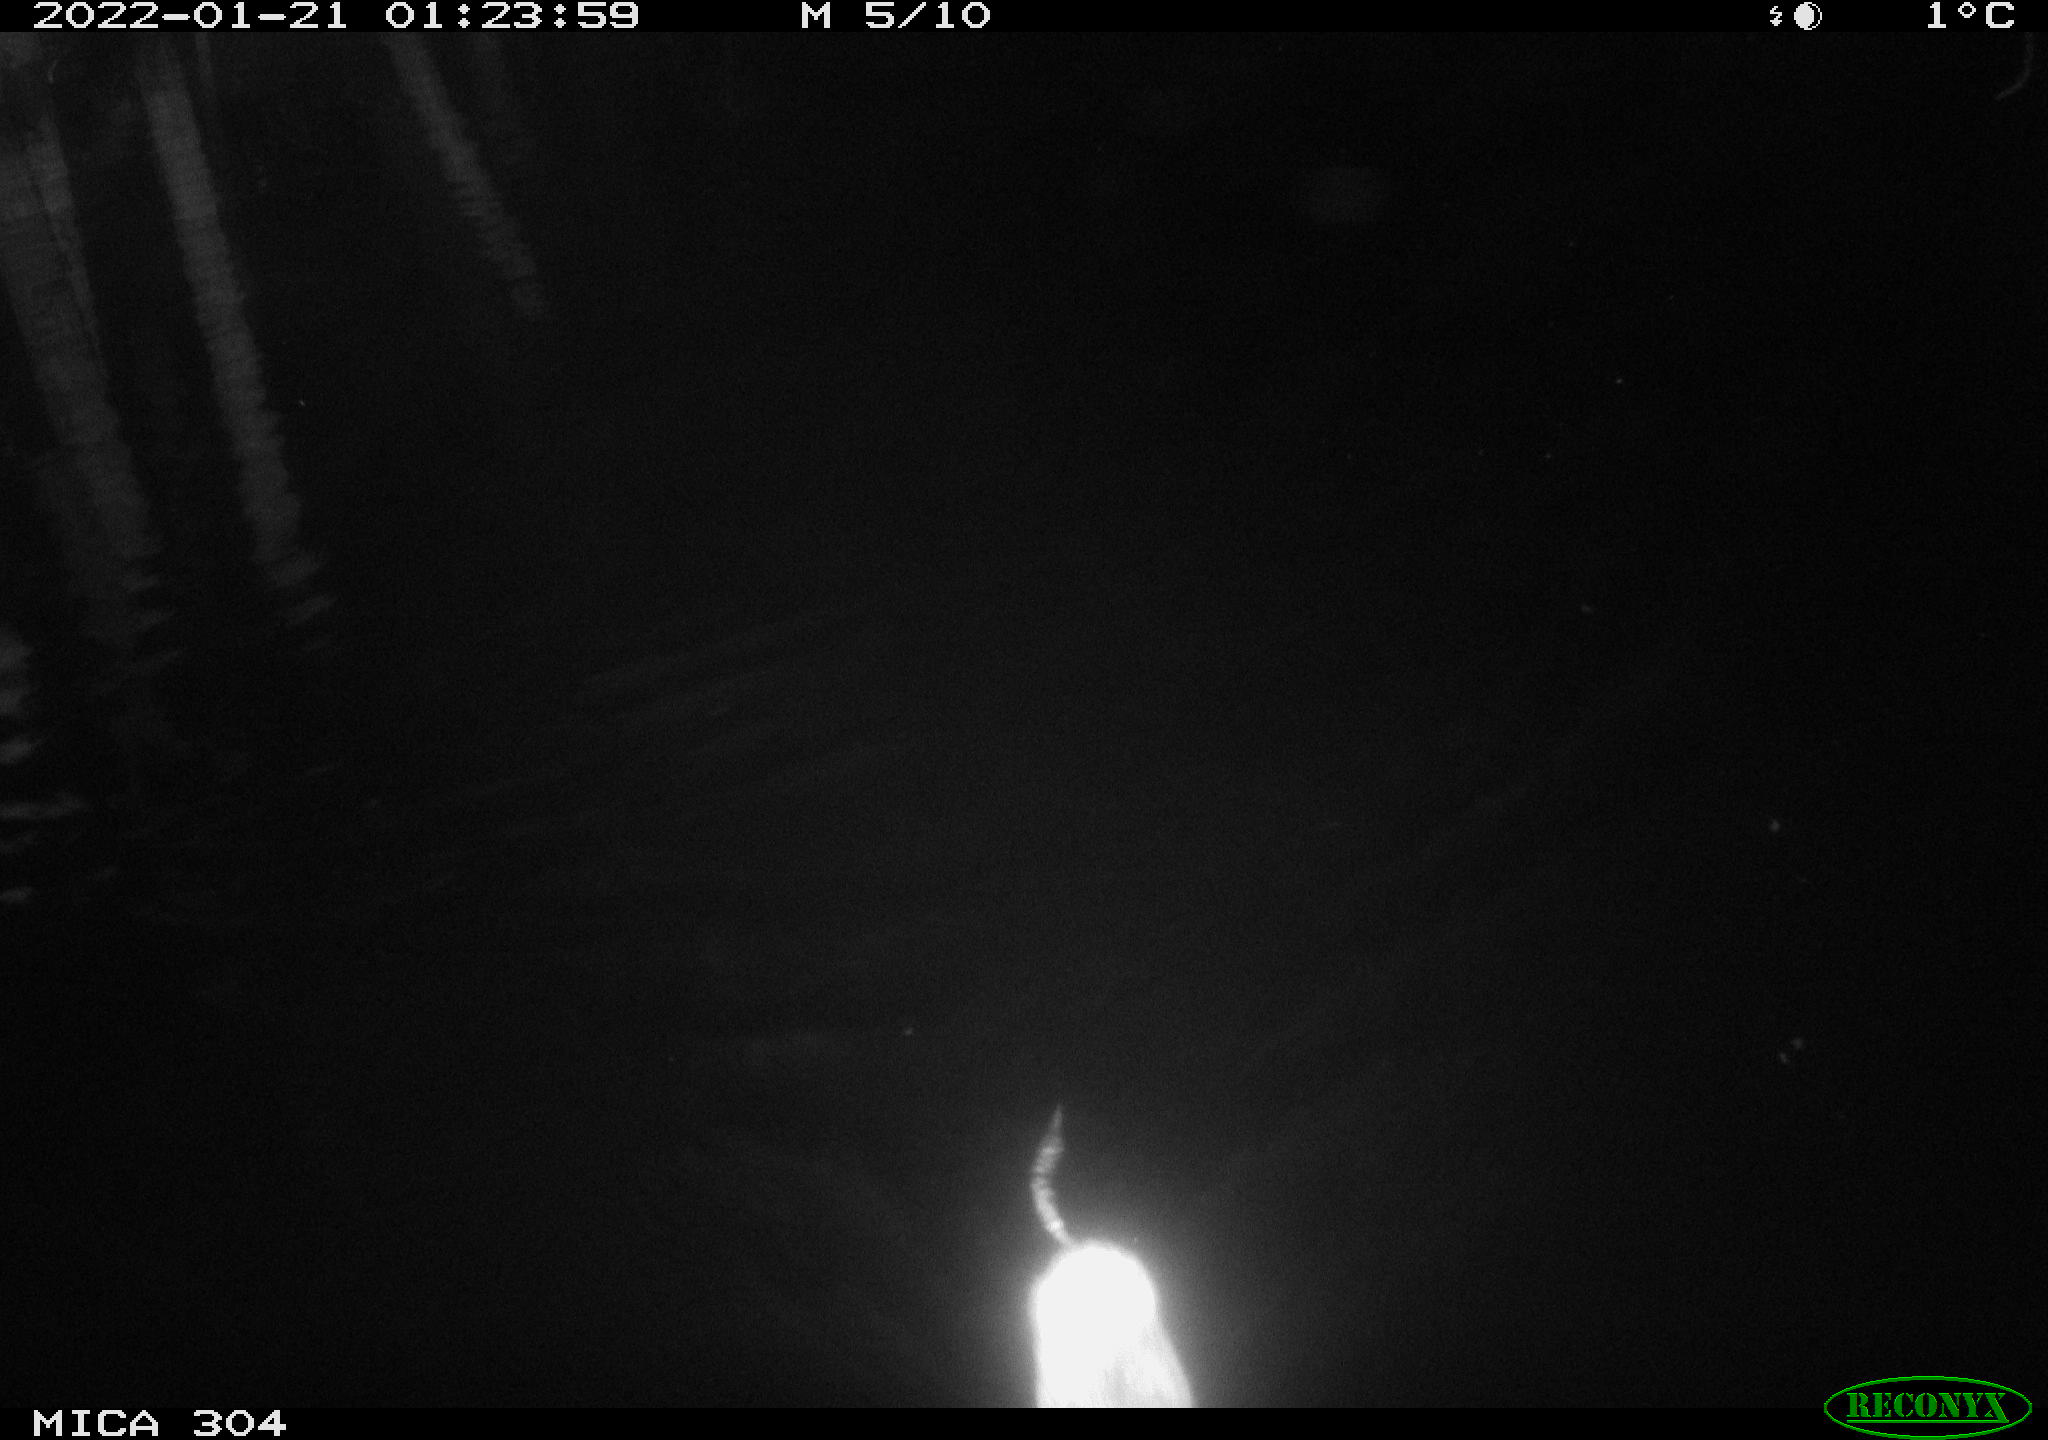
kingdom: Animalia
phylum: Chordata
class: Mammalia
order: Rodentia
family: Cricetidae
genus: Ondatra
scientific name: Ondatra zibethicus
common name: Muskrat
